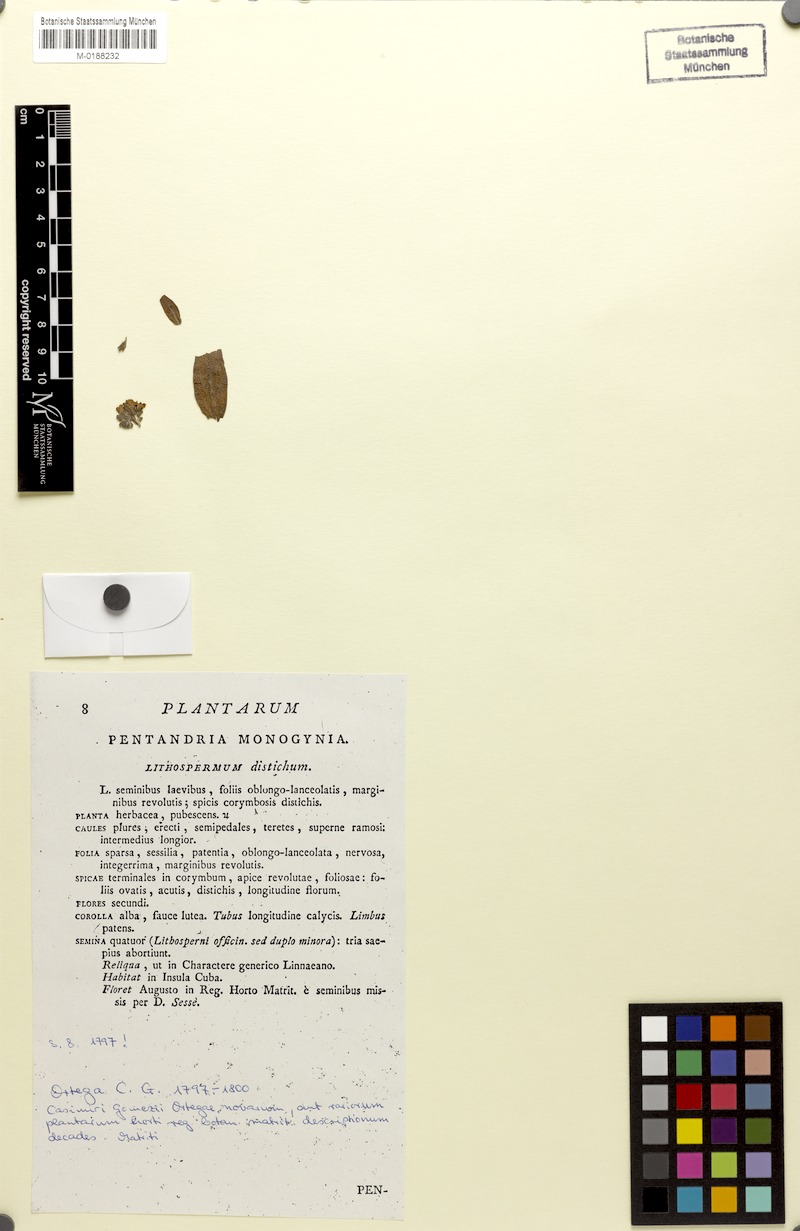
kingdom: Plantae
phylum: Tracheophyta
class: Magnoliopsida
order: Boraginales
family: Boraginaceae
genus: Lithospermum
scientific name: Lithospermum distichum
